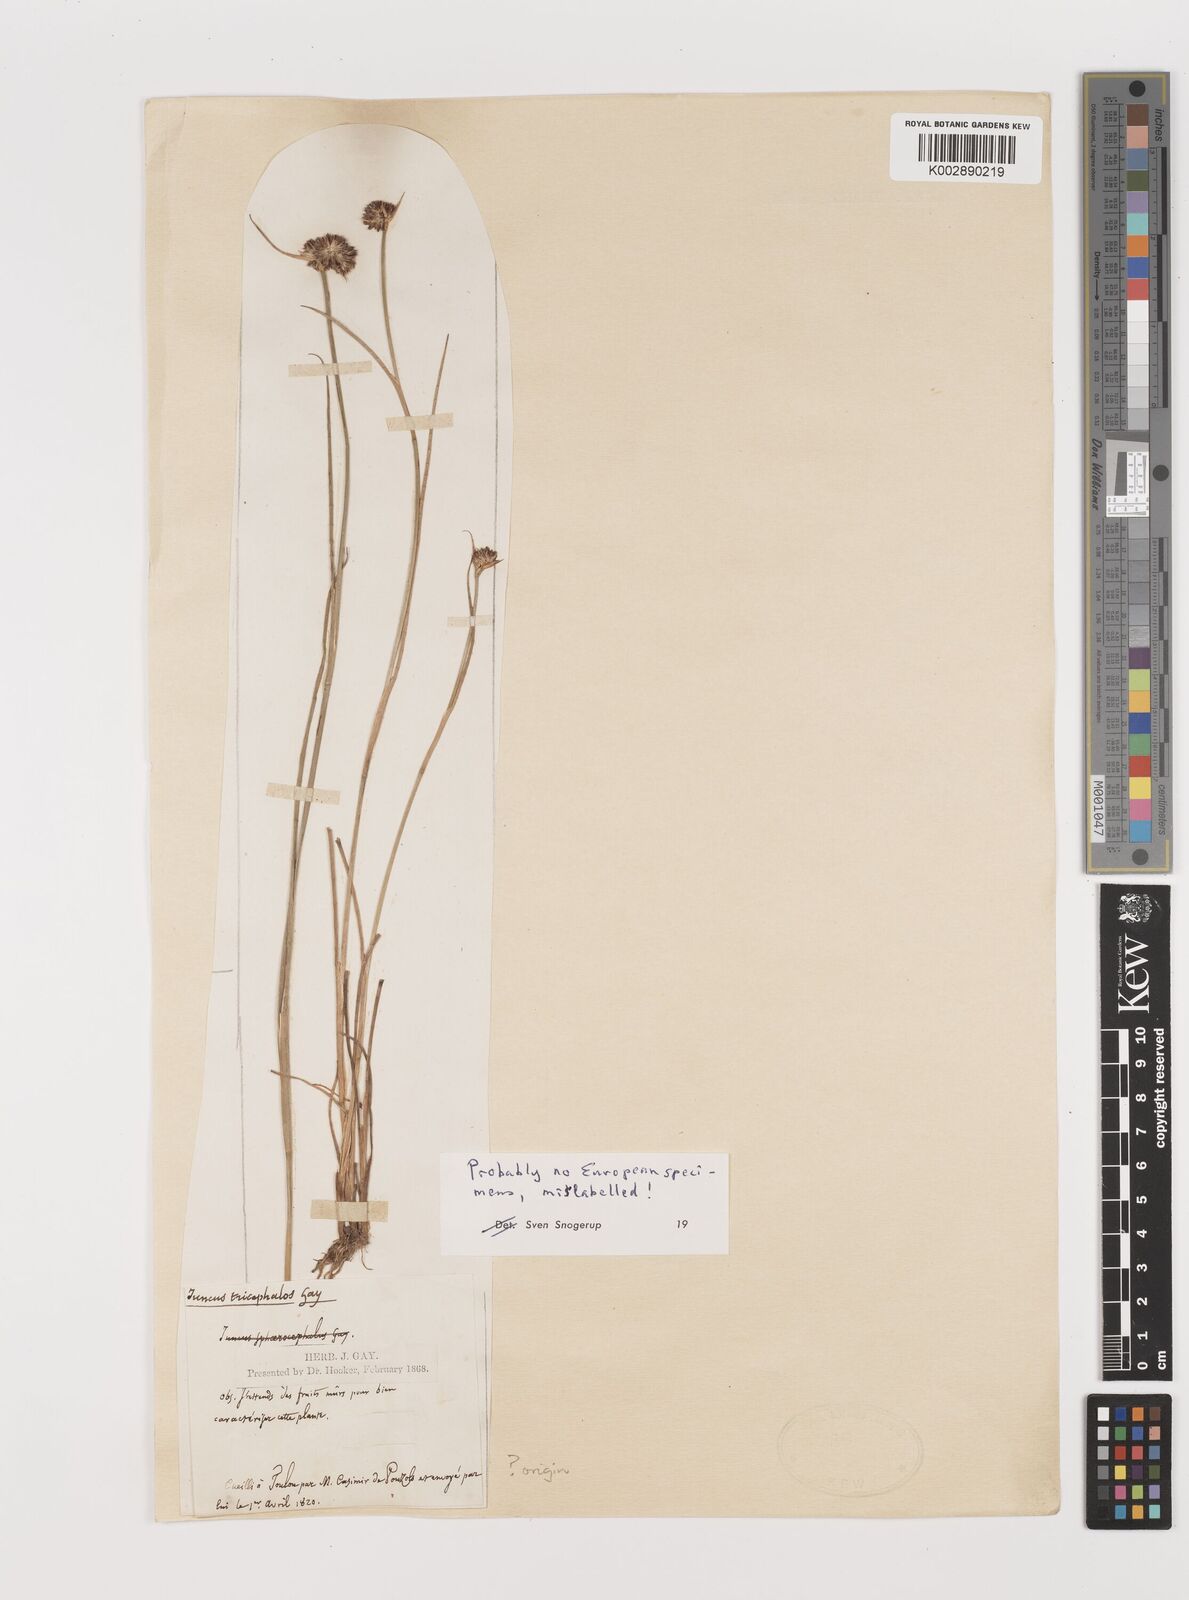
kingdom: Plantae
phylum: Tracheophyta
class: Liliopsida
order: Poales
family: Juncaceae
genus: Juncus
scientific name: Juncus articulatus
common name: Jointed rush
